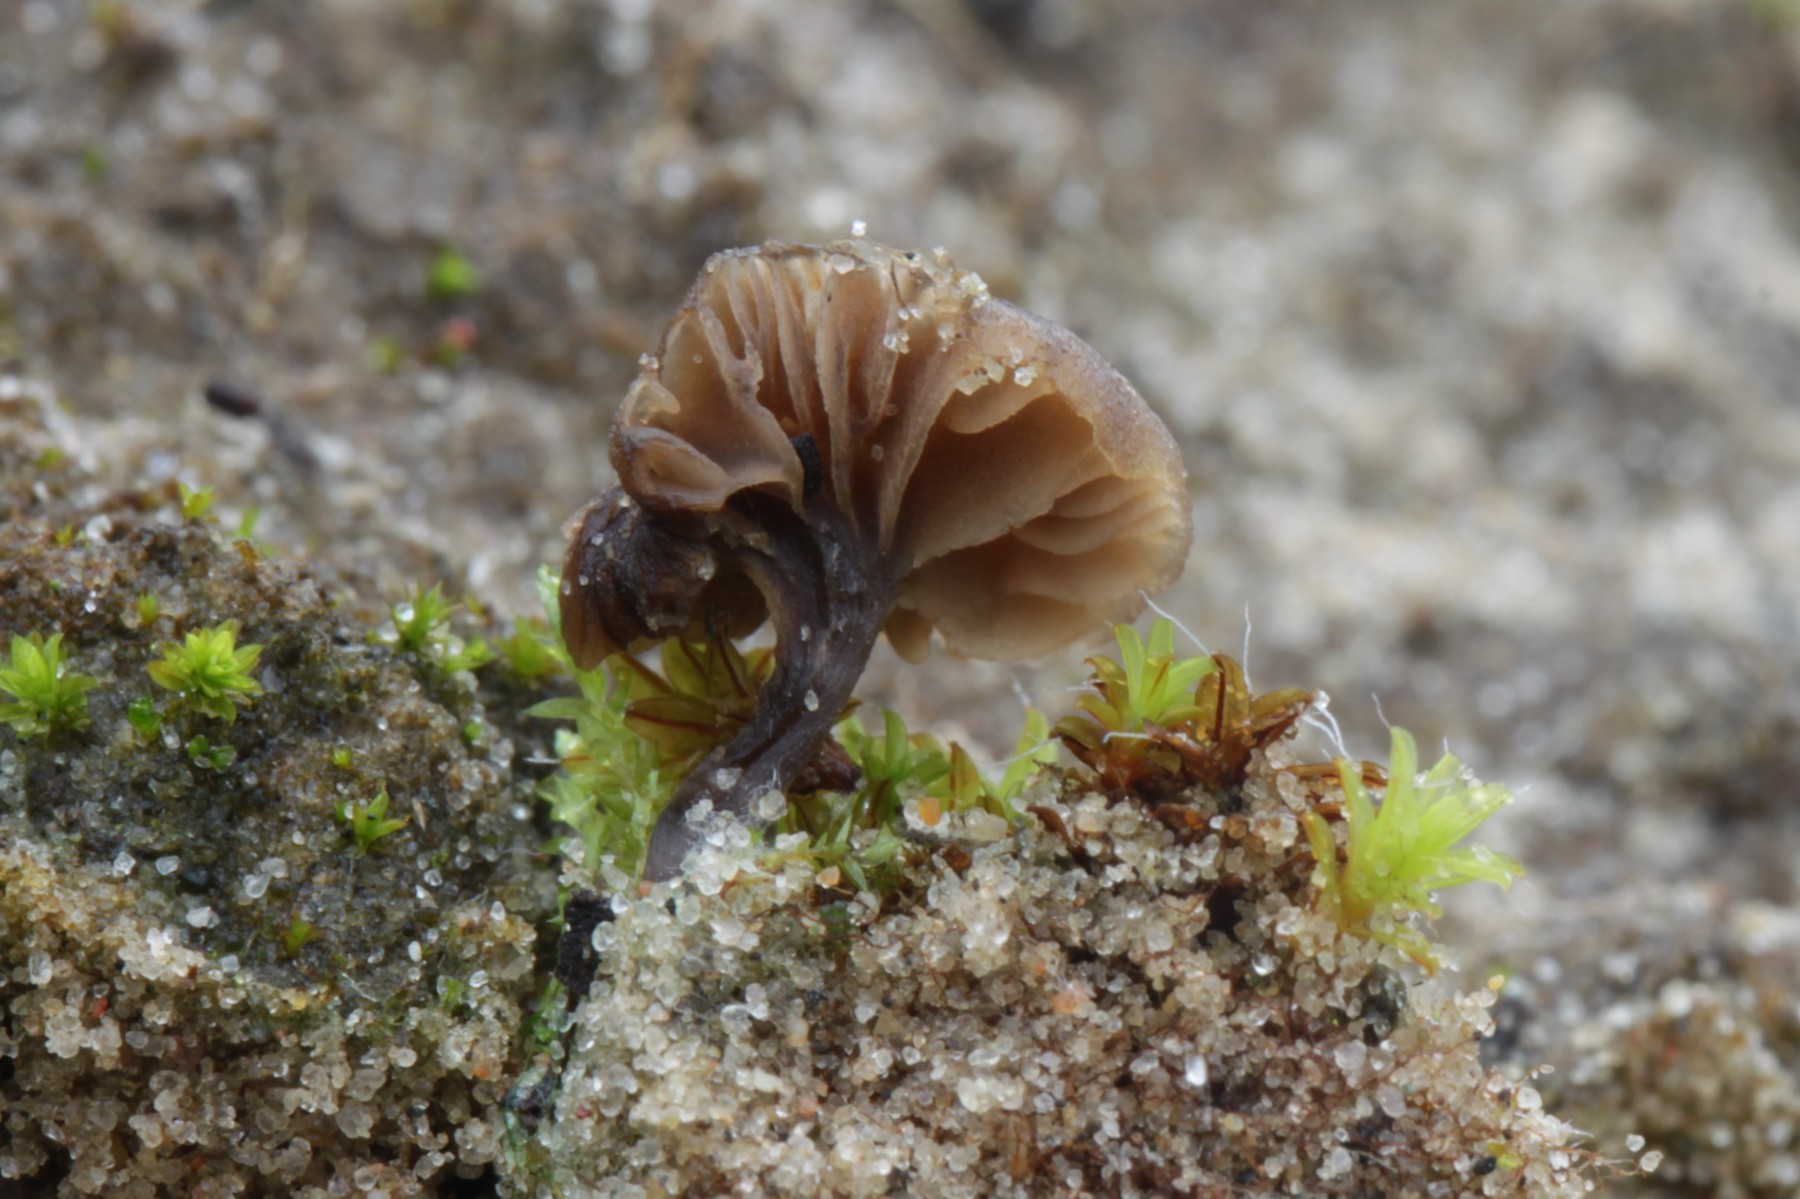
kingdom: Fungi
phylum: Basidiomycota
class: Agaricomycetes
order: Agaricales
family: Entolomataceae
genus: Entoloma
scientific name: Entoloma rusticoides
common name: sand-rødblad
